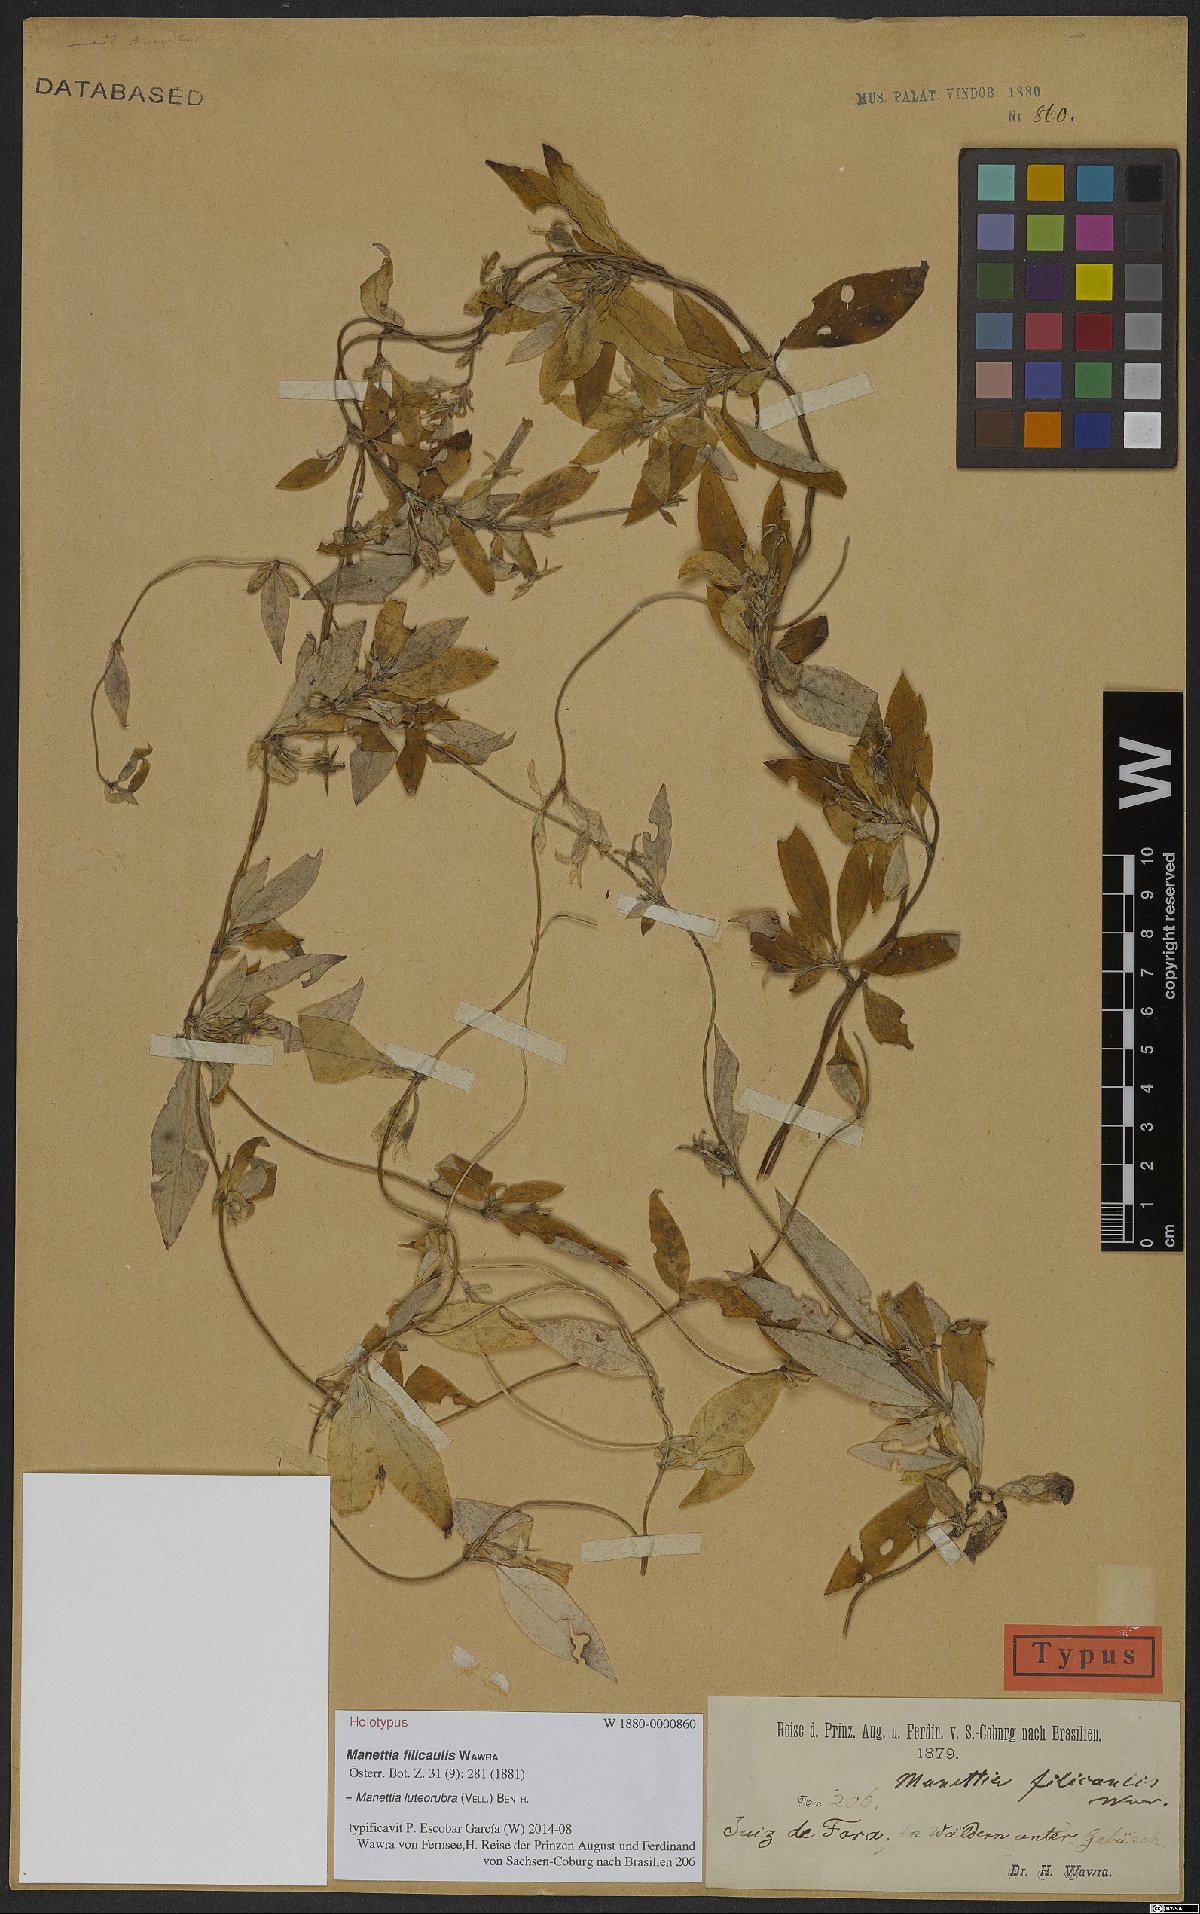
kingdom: Plantae
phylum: Tracheophyta
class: Magnoliopsida
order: Gentianales
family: Rubiaceae
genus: Manettia
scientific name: Manettia luteorubra
